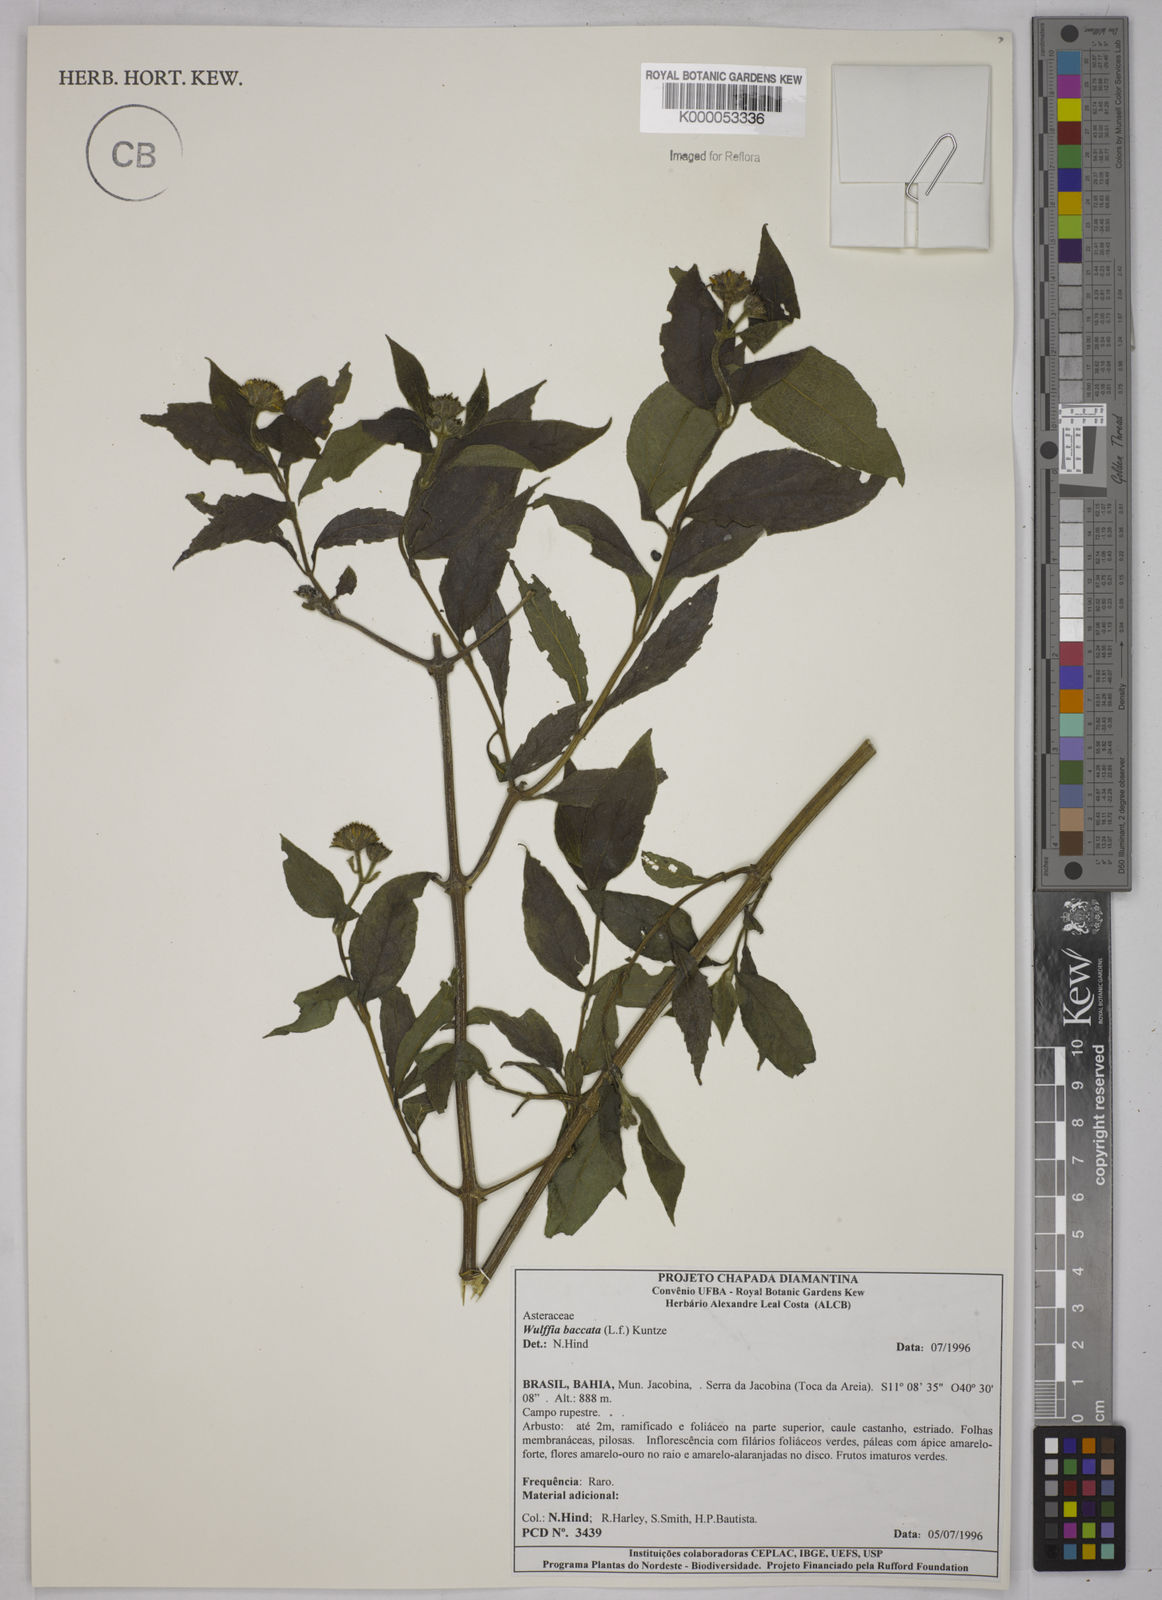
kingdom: Plantae
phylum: Tracheophyta
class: Magnoliopsida
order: Asterales
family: Asteraceae
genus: Tilesia
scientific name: Tilesia baccata
